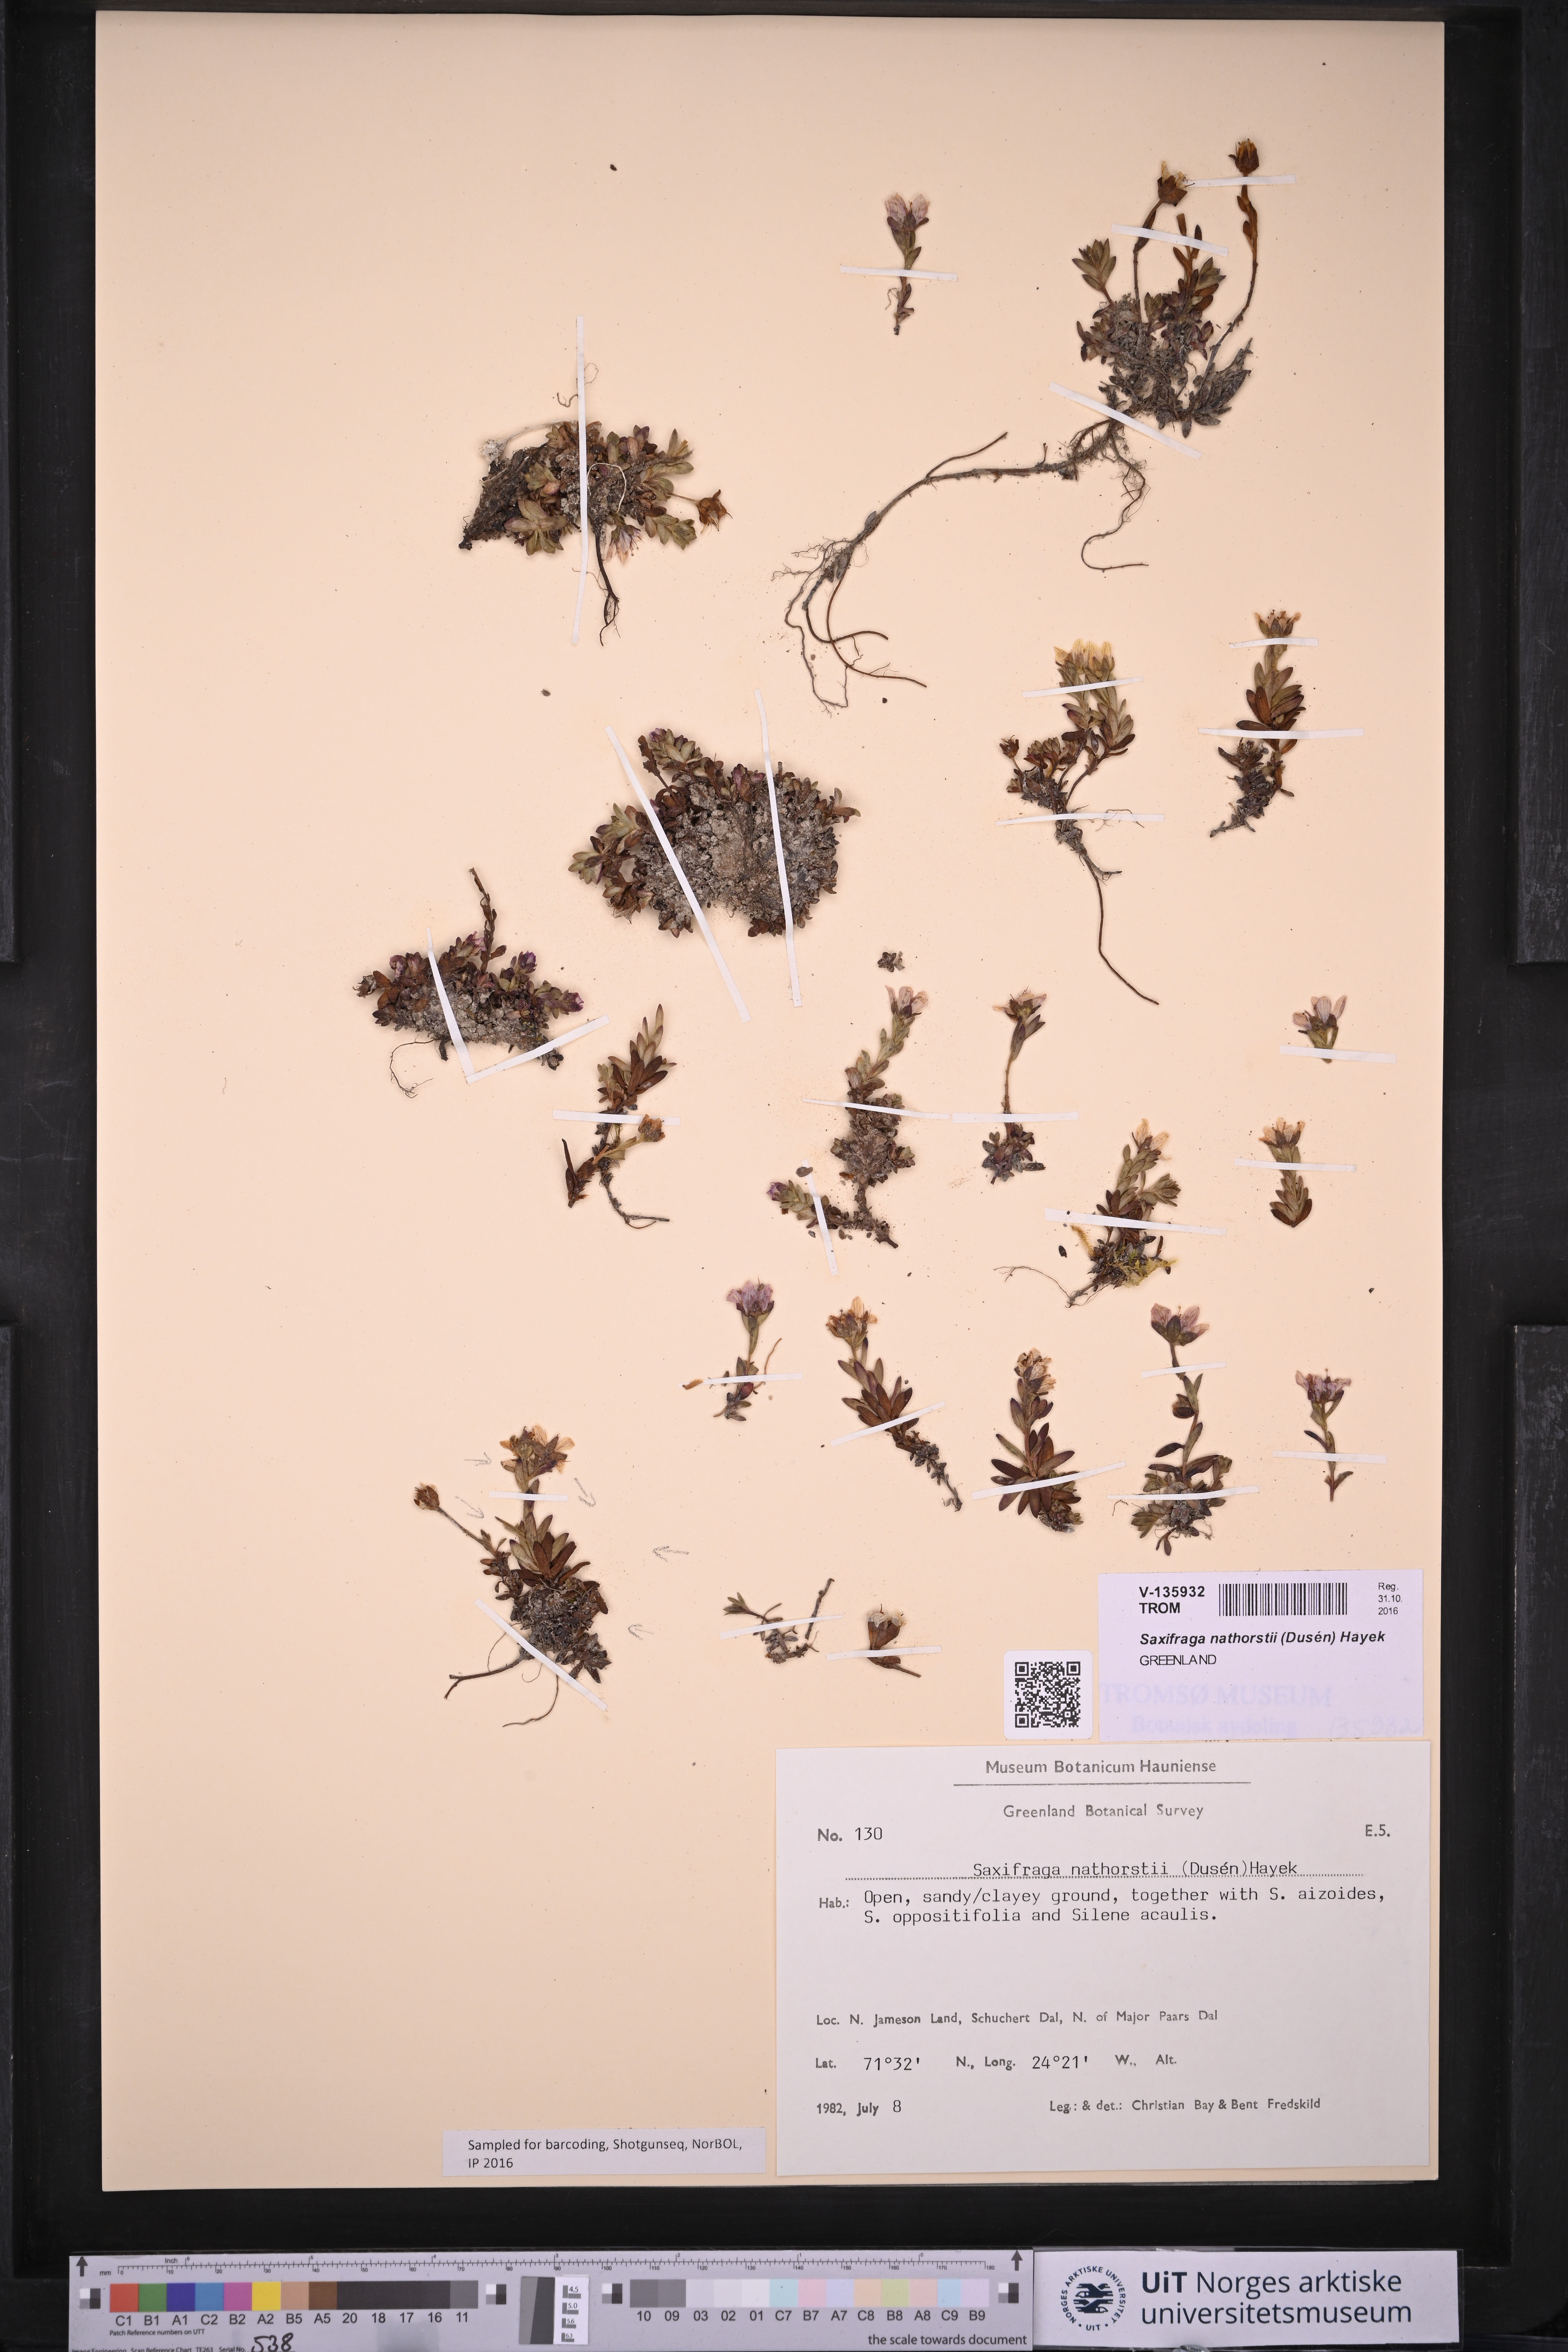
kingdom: Plantae
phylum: Tracheophyta
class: Magnoliopsida
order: Saxifragales
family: Saxifragaceae
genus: Saxifraga
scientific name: Saxifraga nathorstii
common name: East greenland saxifrage
